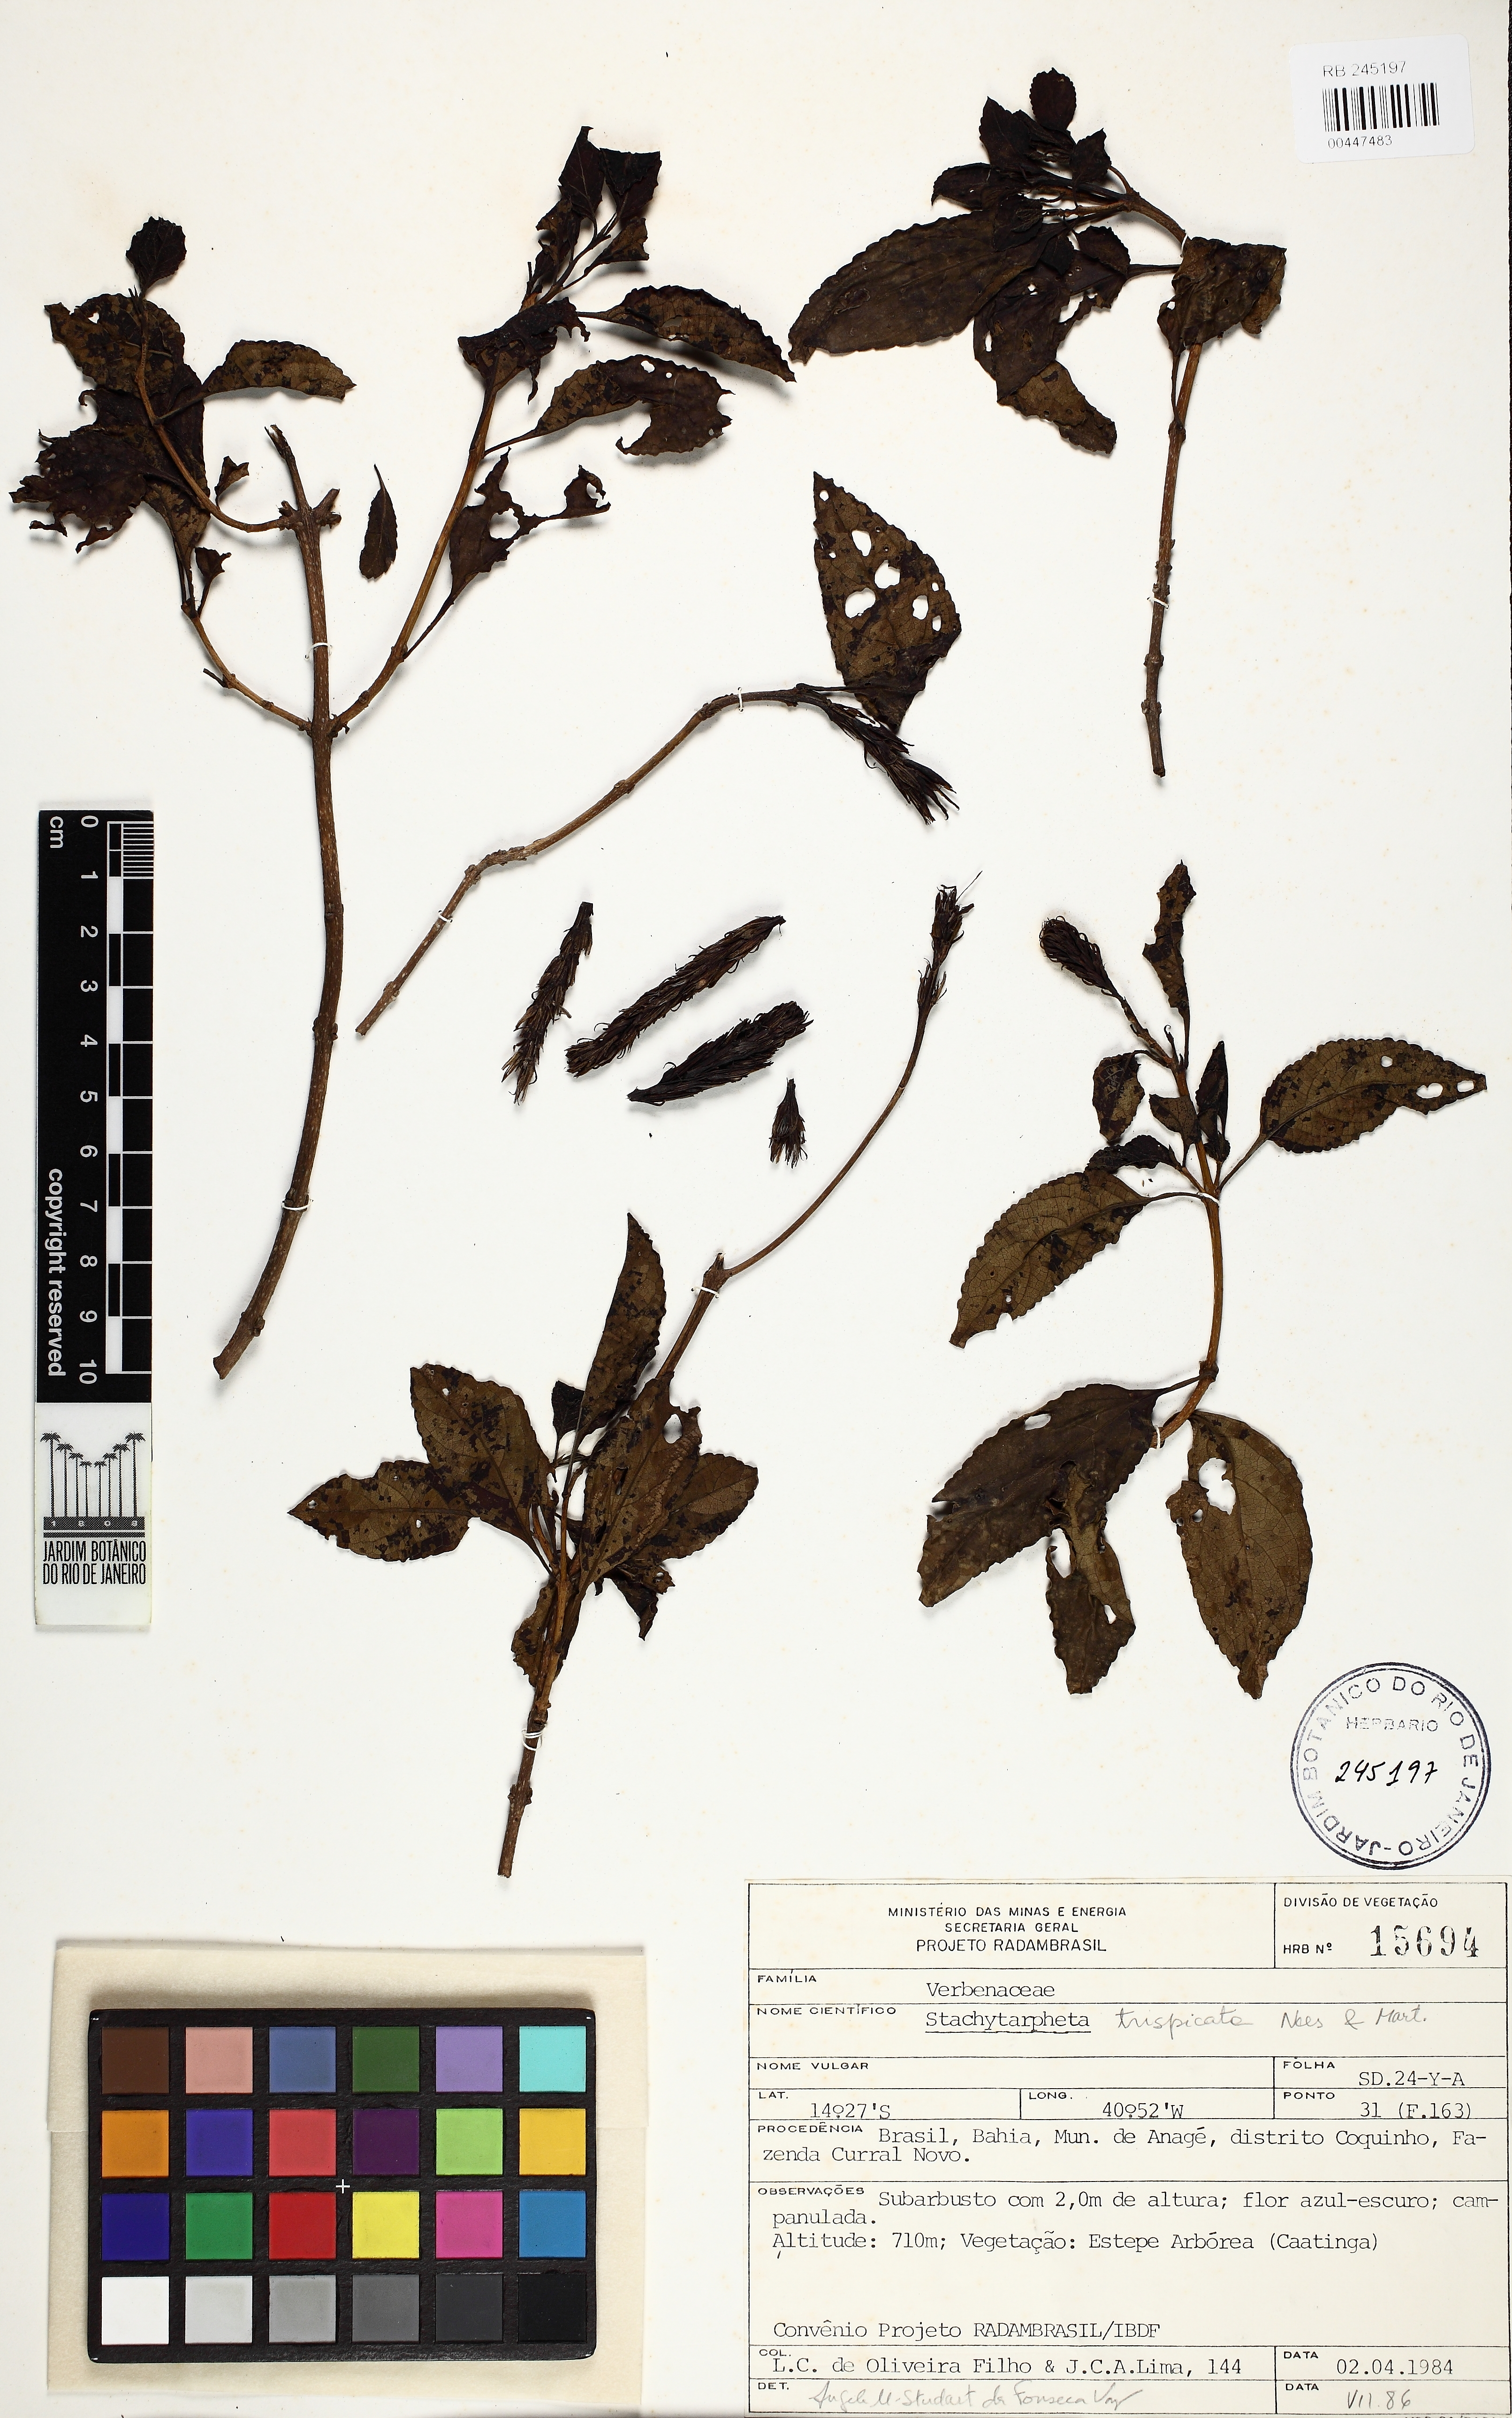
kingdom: Plantae
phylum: Tracheophyta
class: Magnoliopsida
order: Lamiales
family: Verbenaceae
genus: Stachytarpheta
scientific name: Stachytarpheta trispicata
